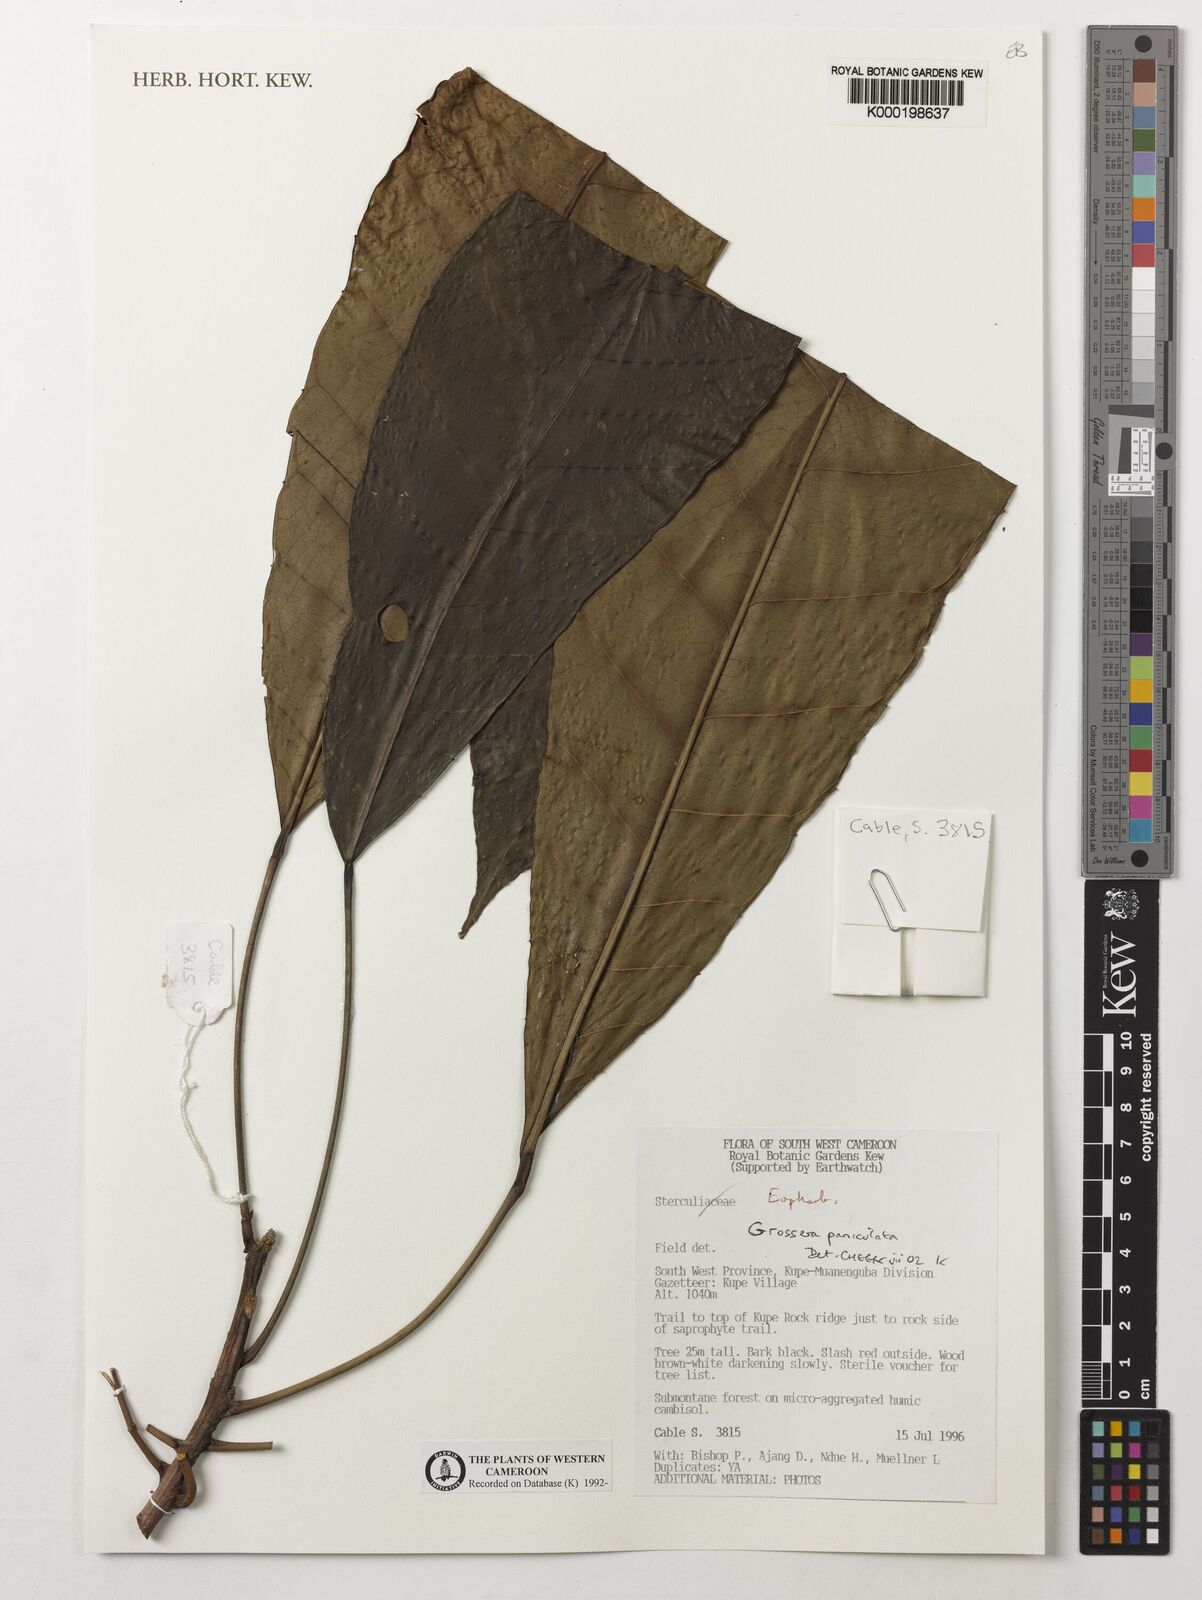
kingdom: Plantae
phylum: Tracheophyta
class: Magnoliopsida
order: Malpighiales
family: Euphorbiaceae
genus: Grossera
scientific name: Grossera paniculata
